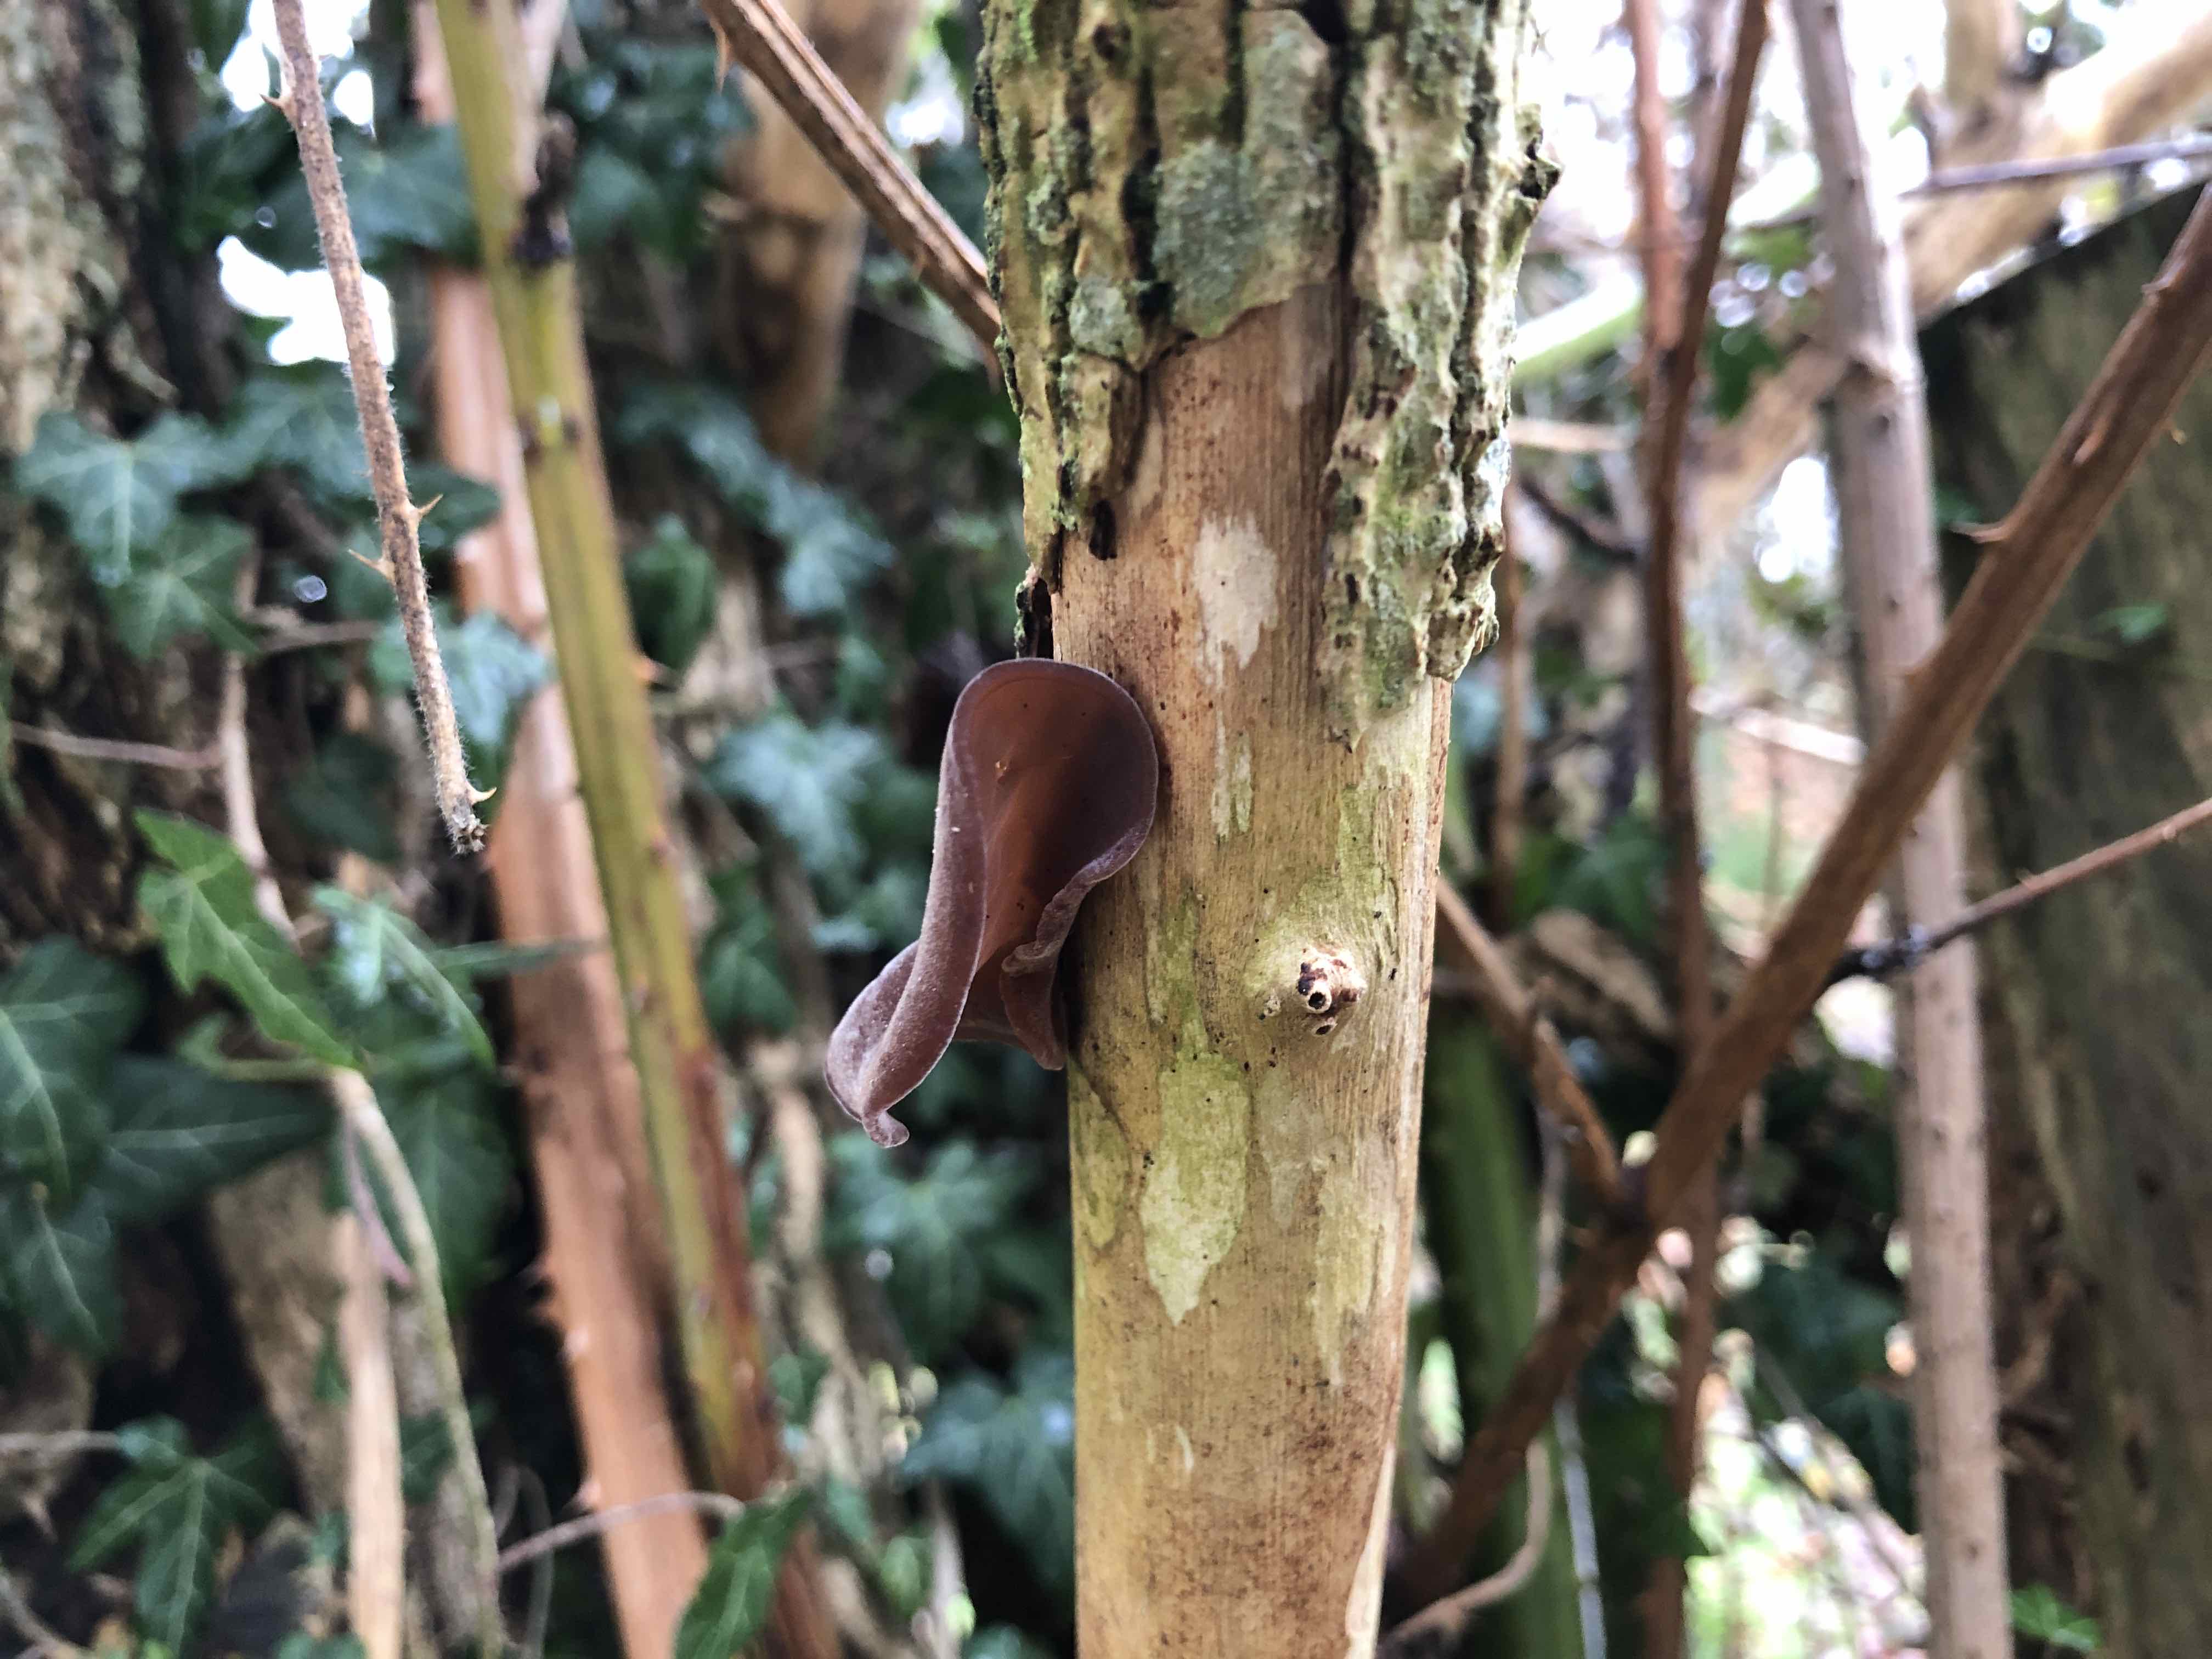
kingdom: Fungi
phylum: Basidiomycota
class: Agaricomycetes
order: Auriculariales
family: Auriculariaceae
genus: Auricularia
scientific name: Auricularia auricula-judae
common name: almindelig judasøre
